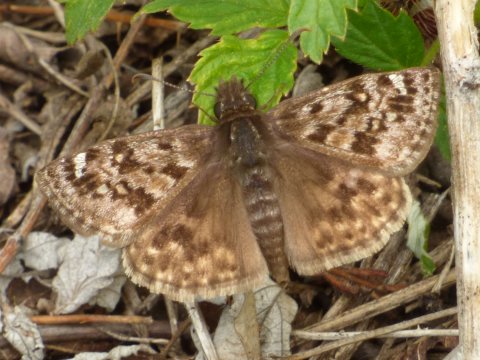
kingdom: Animalia
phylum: Arthropoda
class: Insecta
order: Lepidoptera
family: Hesperiidae
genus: Erynnis
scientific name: Erynnis martialis
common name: Mottled Duskywing
